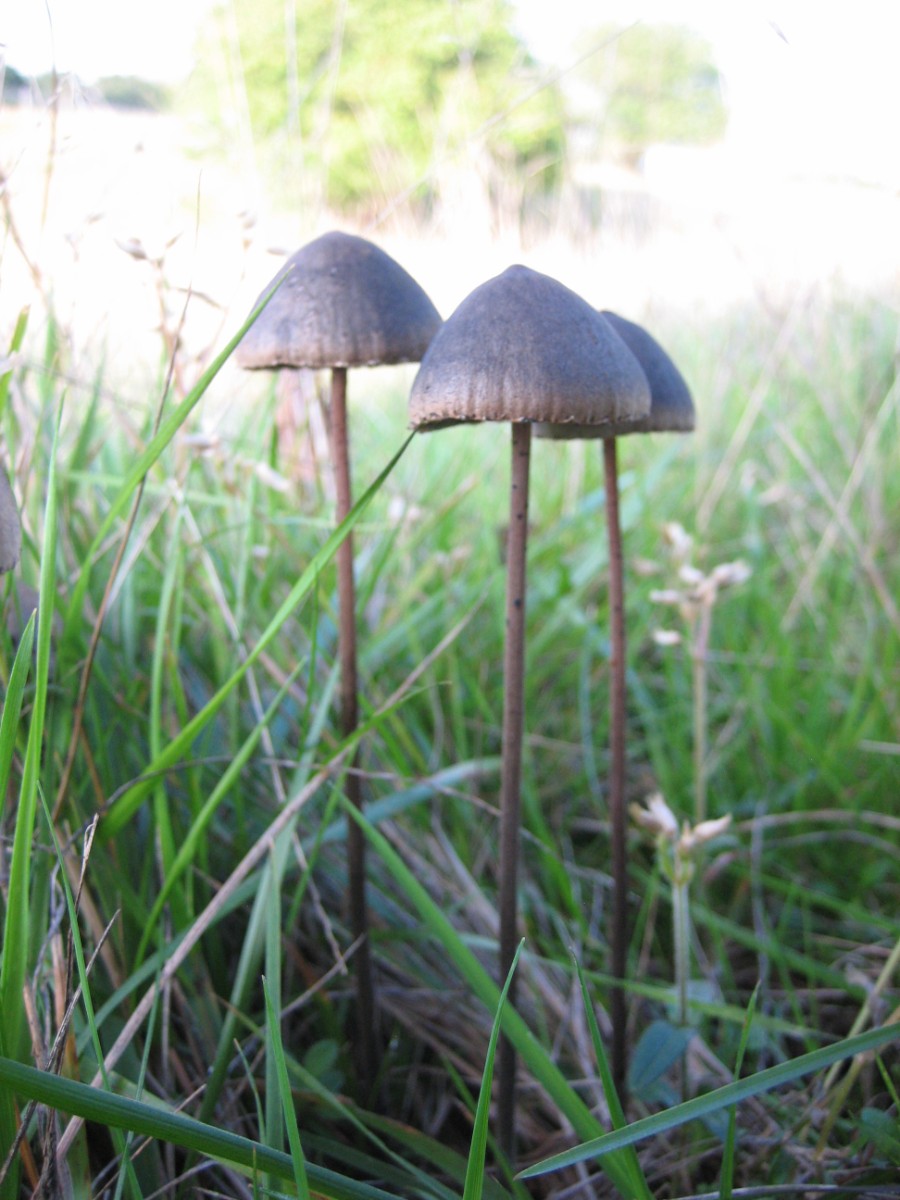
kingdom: Fungi
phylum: Basidiomycota
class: Agaricomycetes
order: Agaricales
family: Bolbitiaceae
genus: Panaeolus
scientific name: Panaeolus papilionaceus
